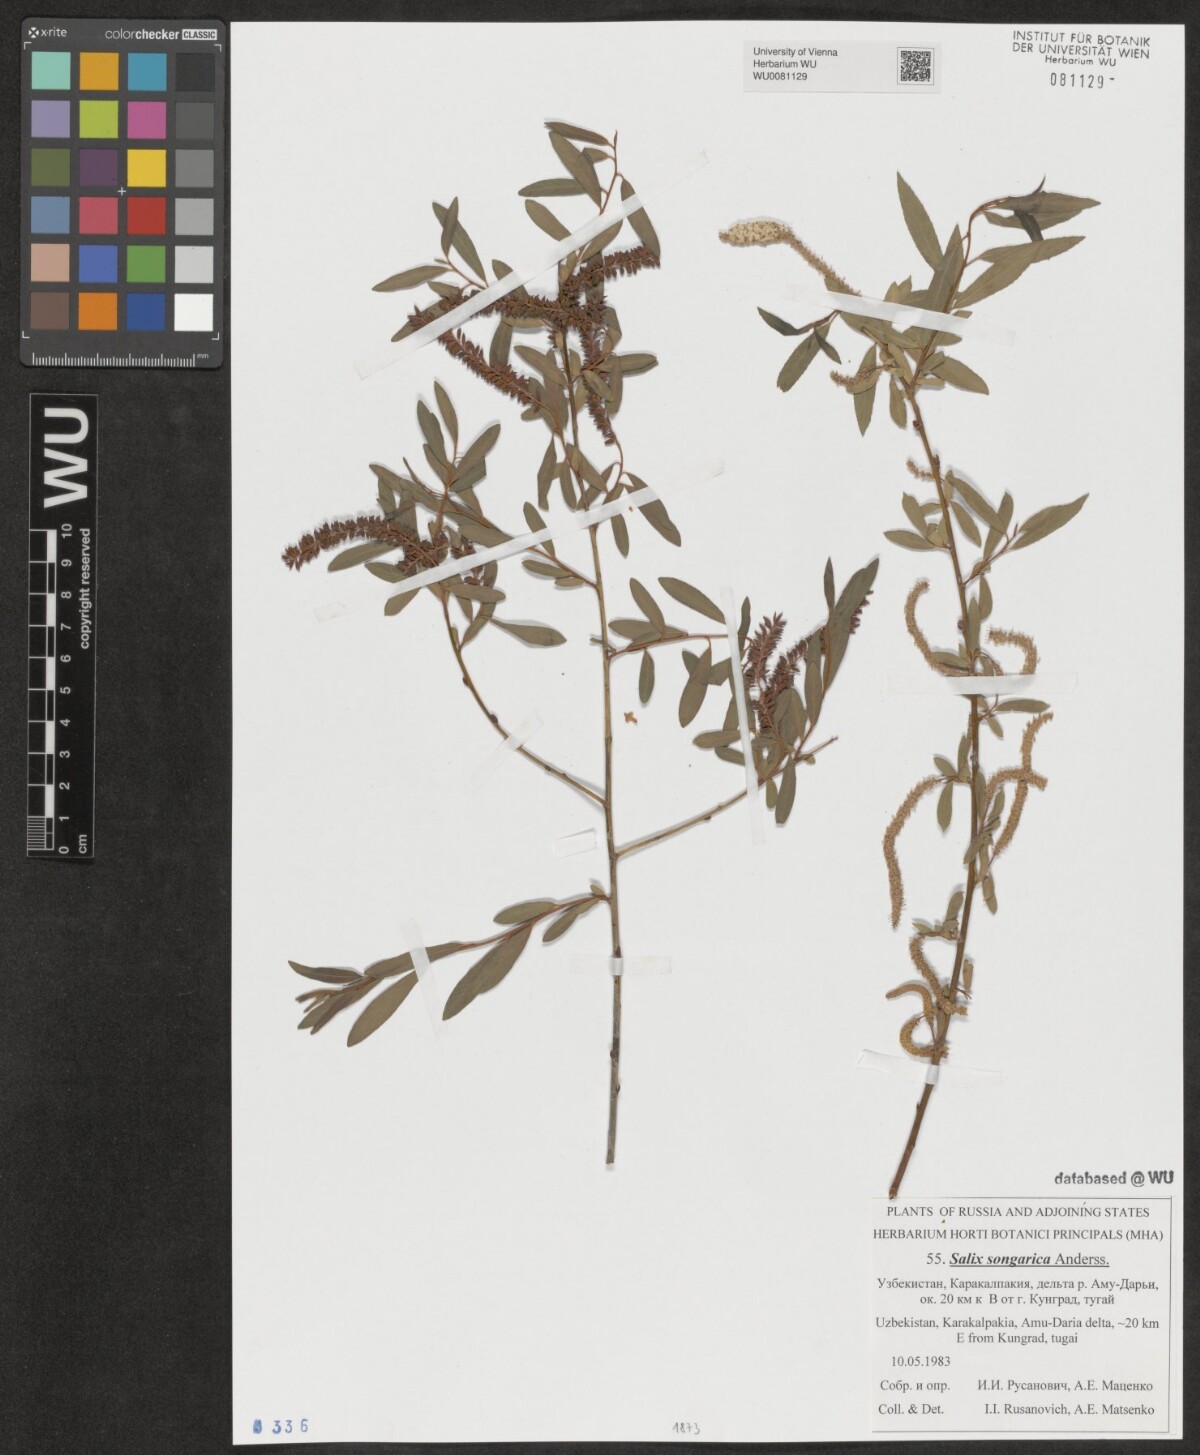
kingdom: Plantae
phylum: Tracheophyta
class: Magnoliopsida
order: Malpighiales
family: Salicaceae
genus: Salix
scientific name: Salix songarica
